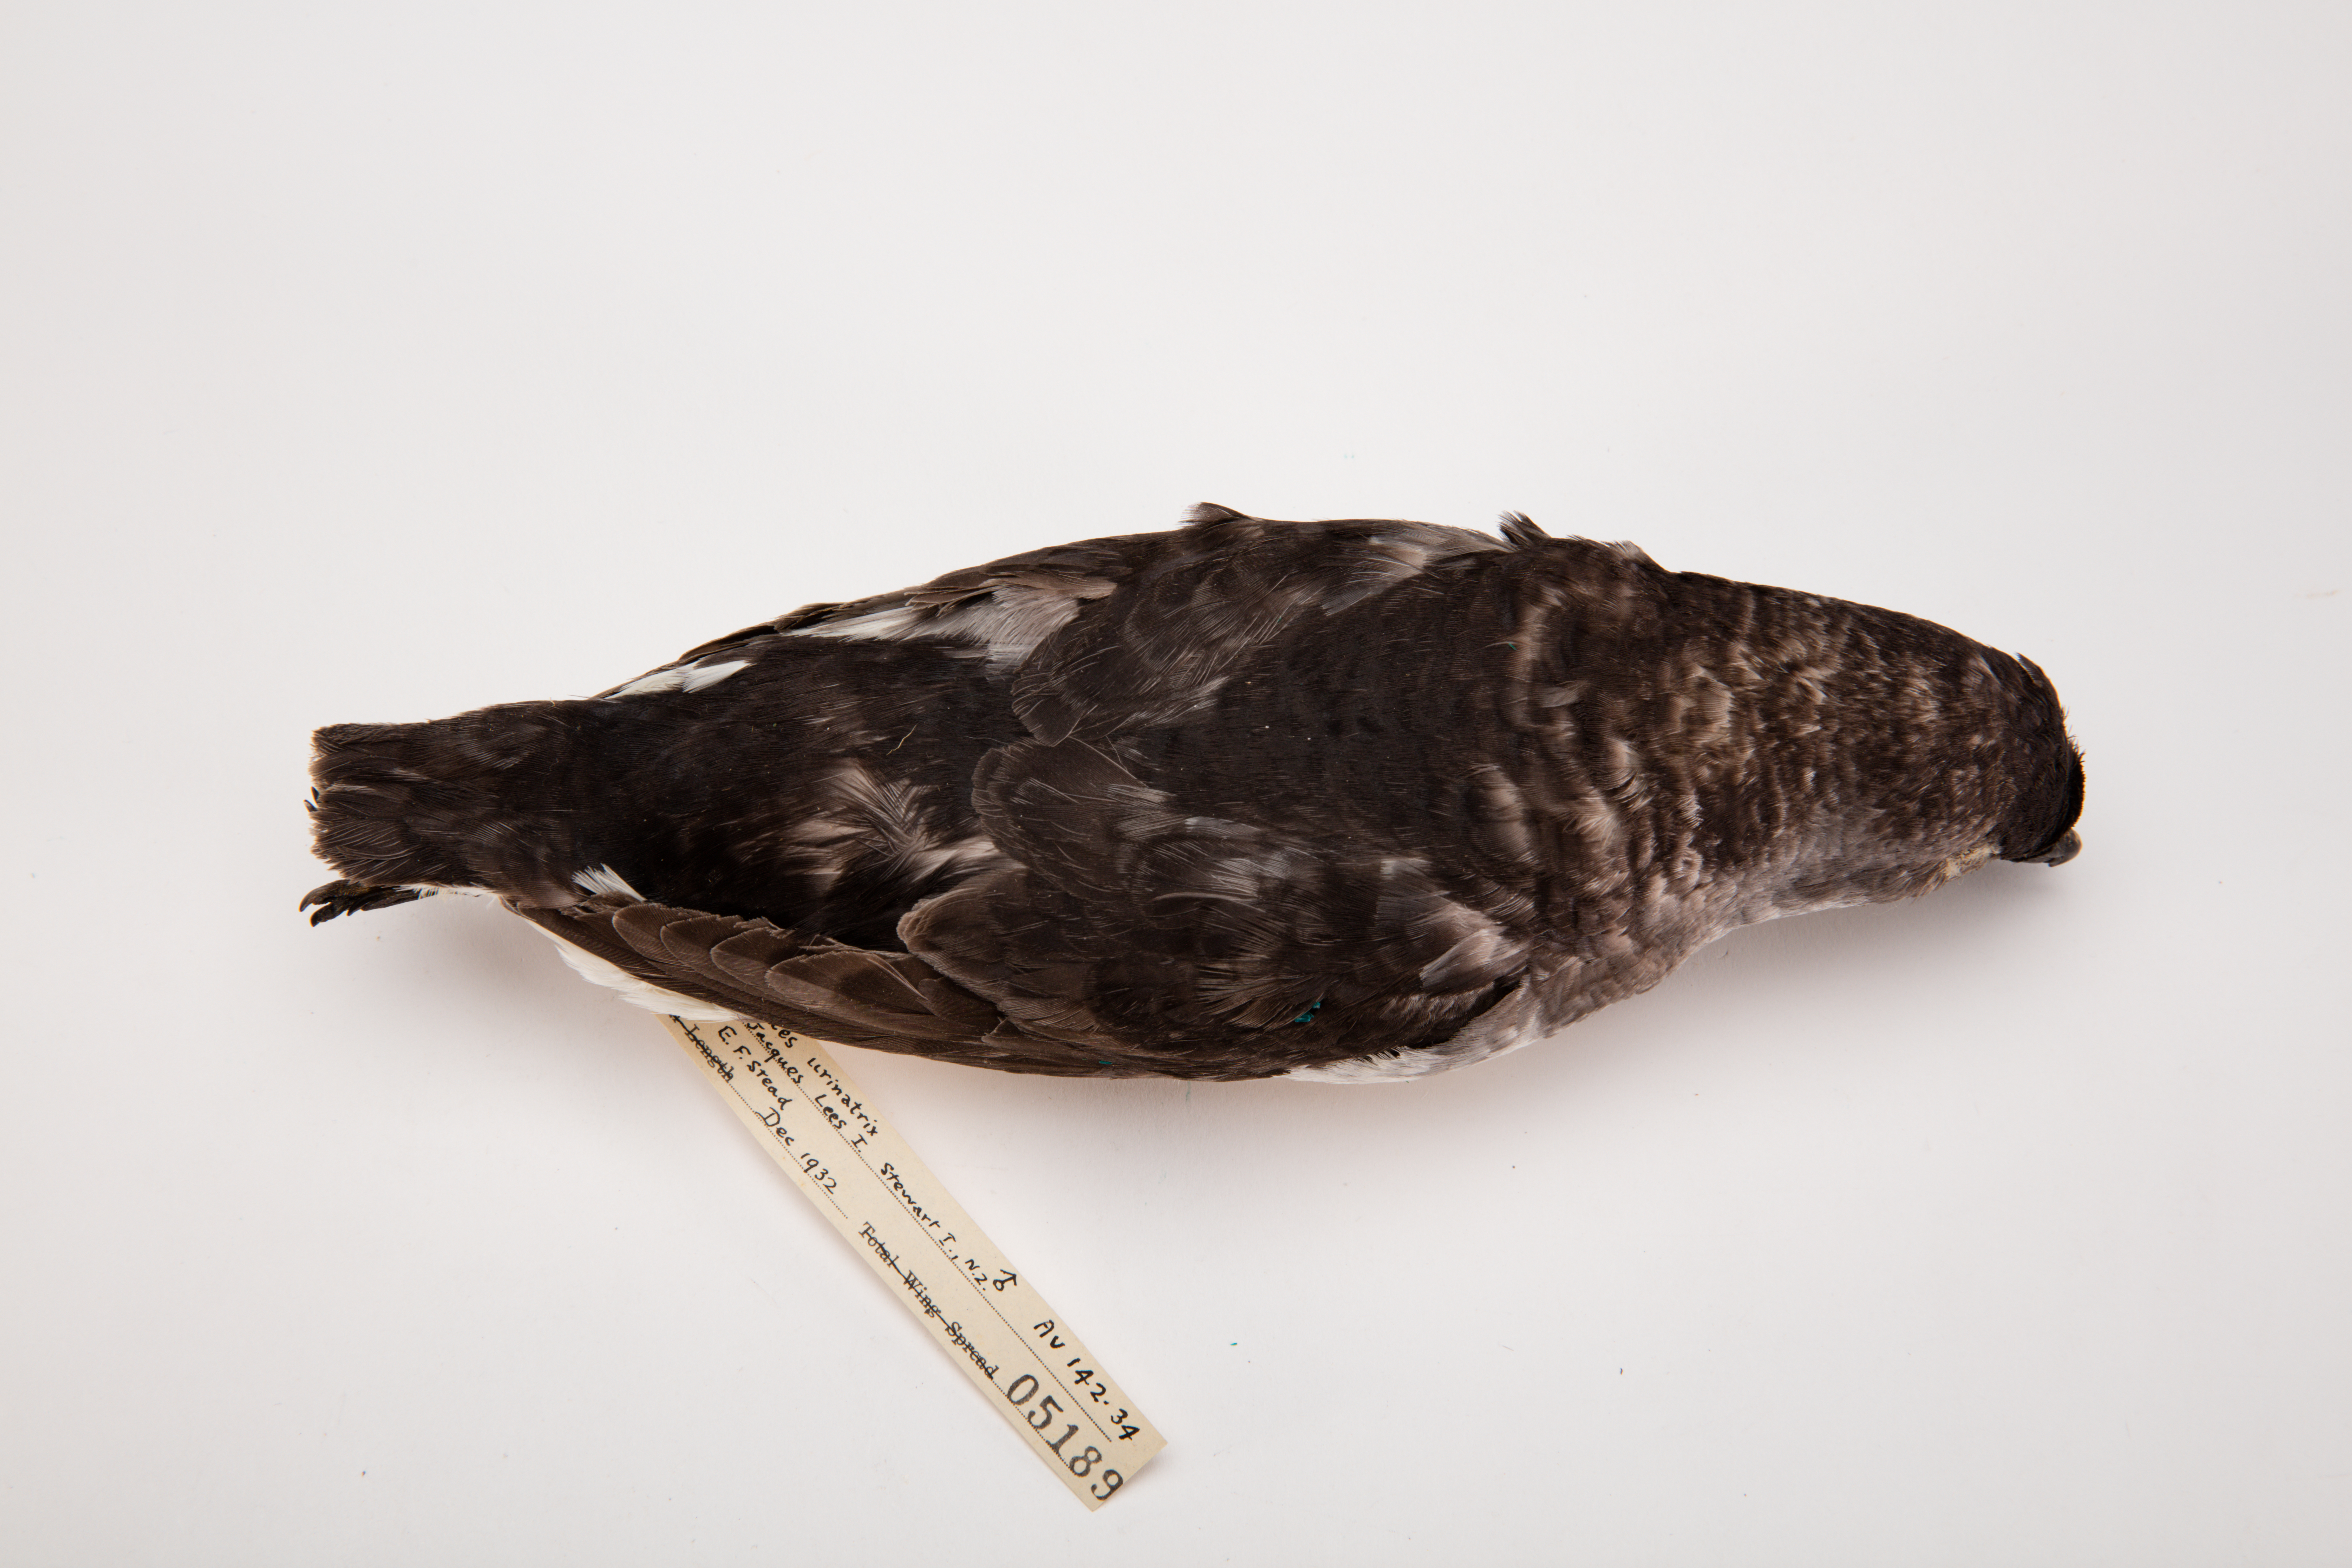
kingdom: Animalia
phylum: Chordata
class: Aves
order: Procellariiformes
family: Pelecanoididae
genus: Pelecanoides
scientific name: Pelecanoides urinatrix
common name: Common diving-petrel
